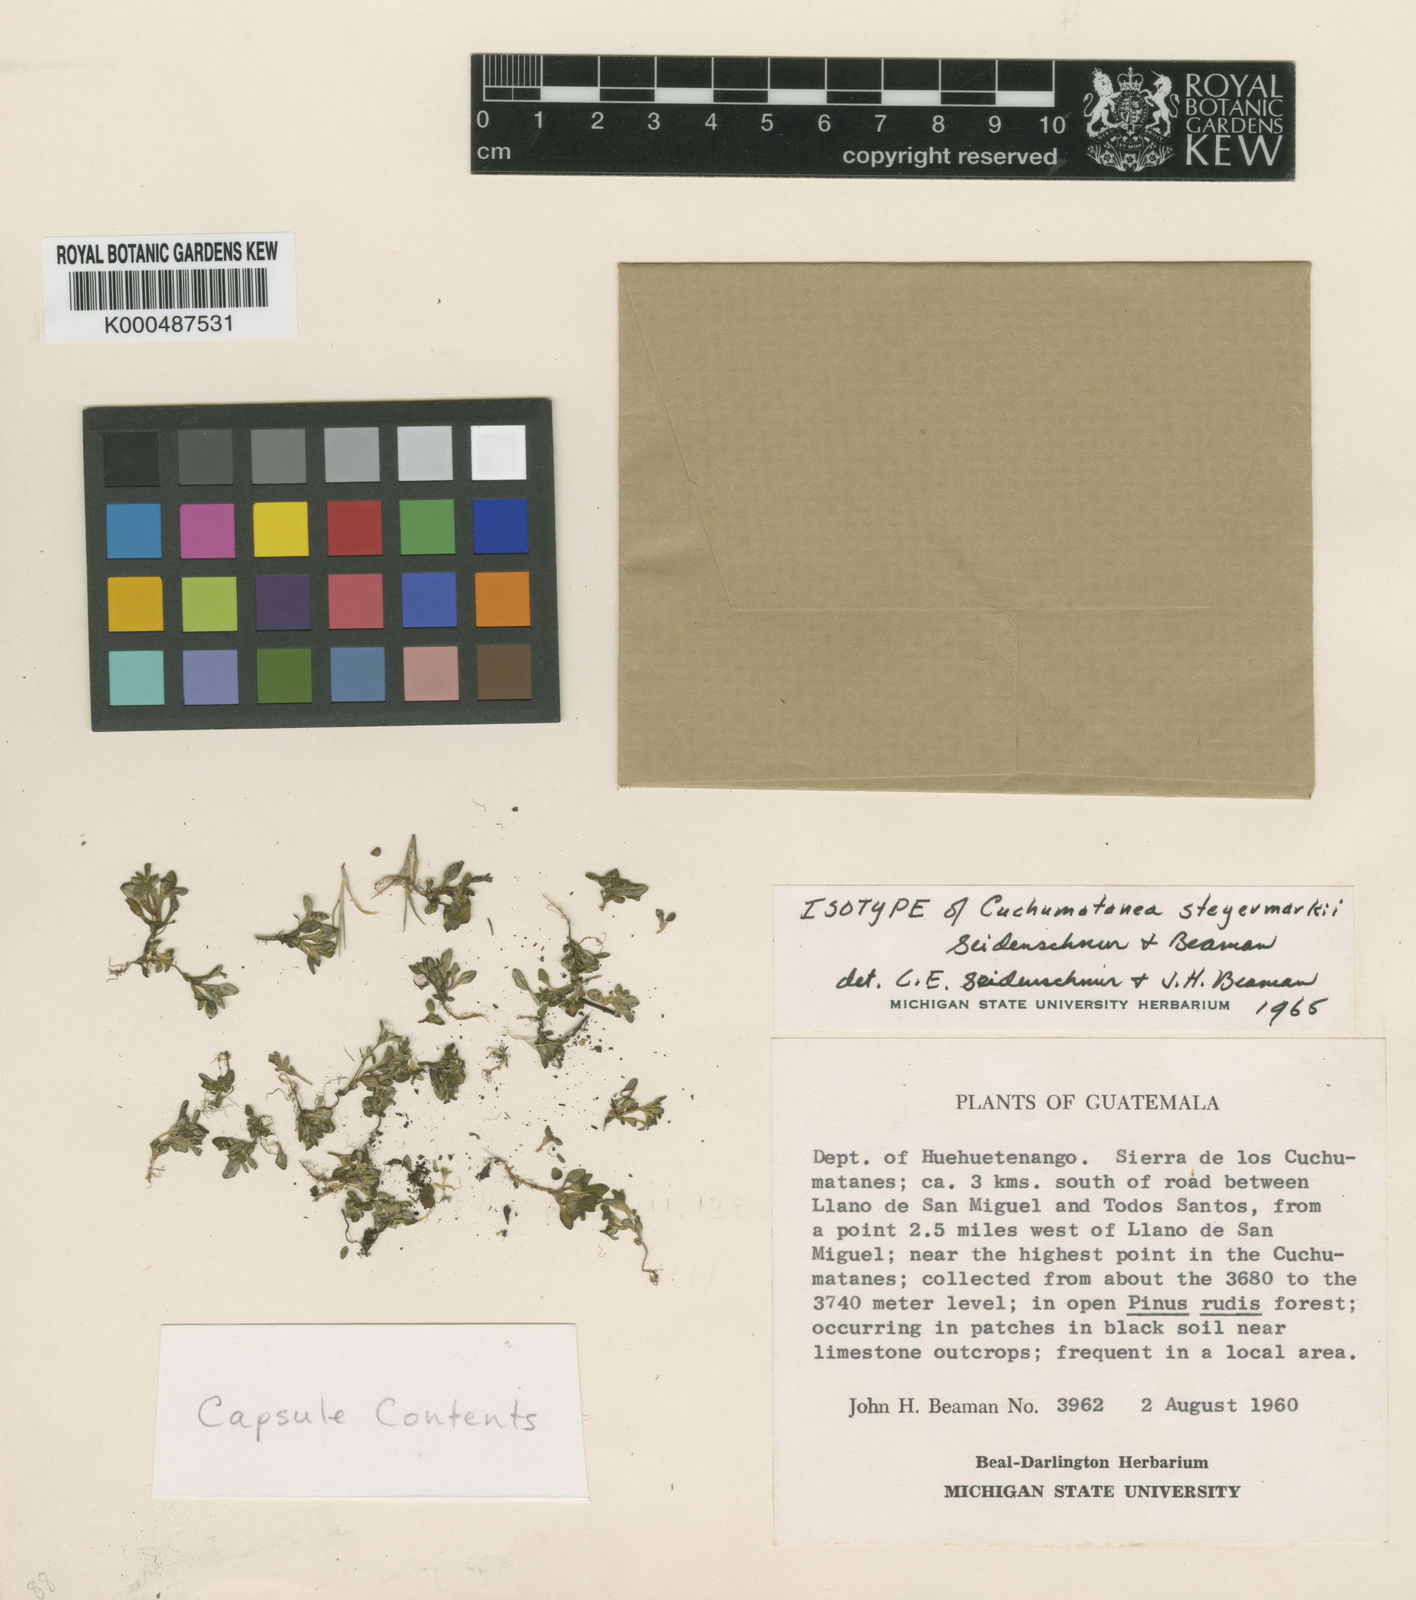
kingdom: Plantae
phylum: Tracheophyta
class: Magnoliopsida
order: Asterales
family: Asteraceae
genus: Cuchumatanea
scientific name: Cuchumatanea steyermarkii
